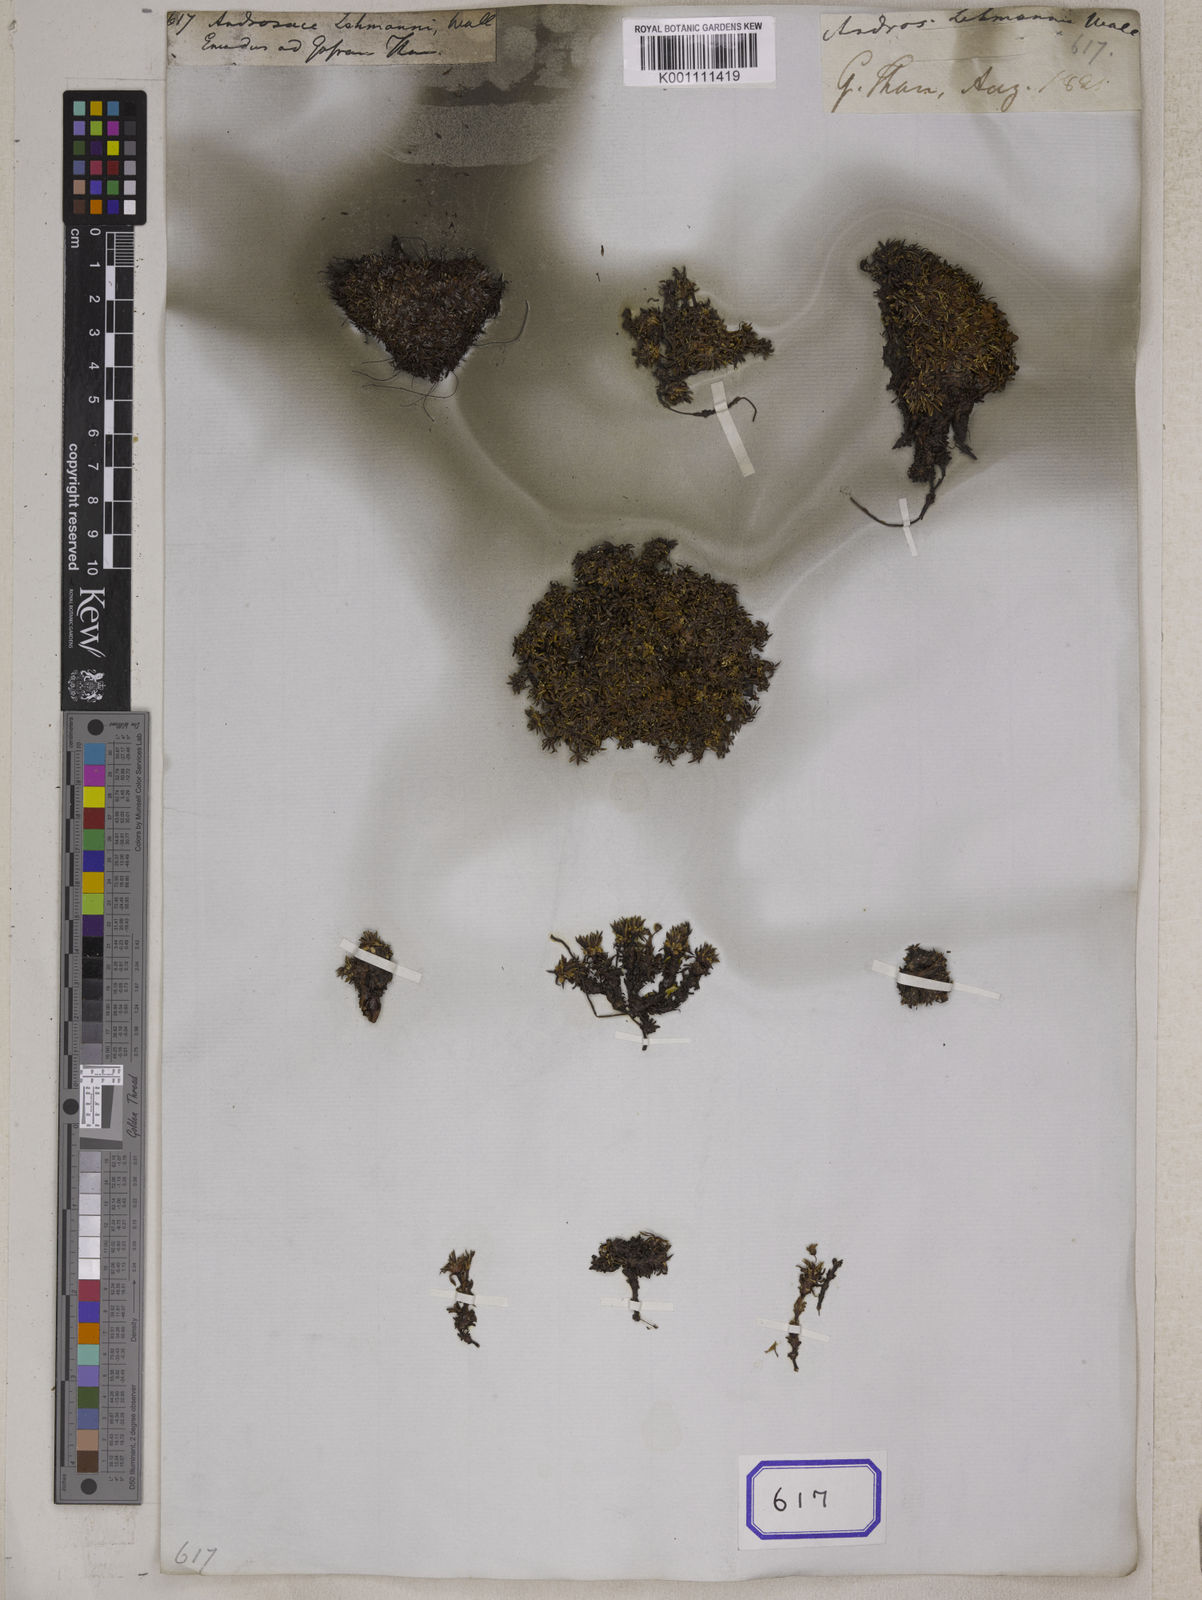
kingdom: Plantae
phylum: Tracheophyta
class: Magnoliopsida
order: Ericales
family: Primulaceae
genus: Androsace
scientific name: Androsace
